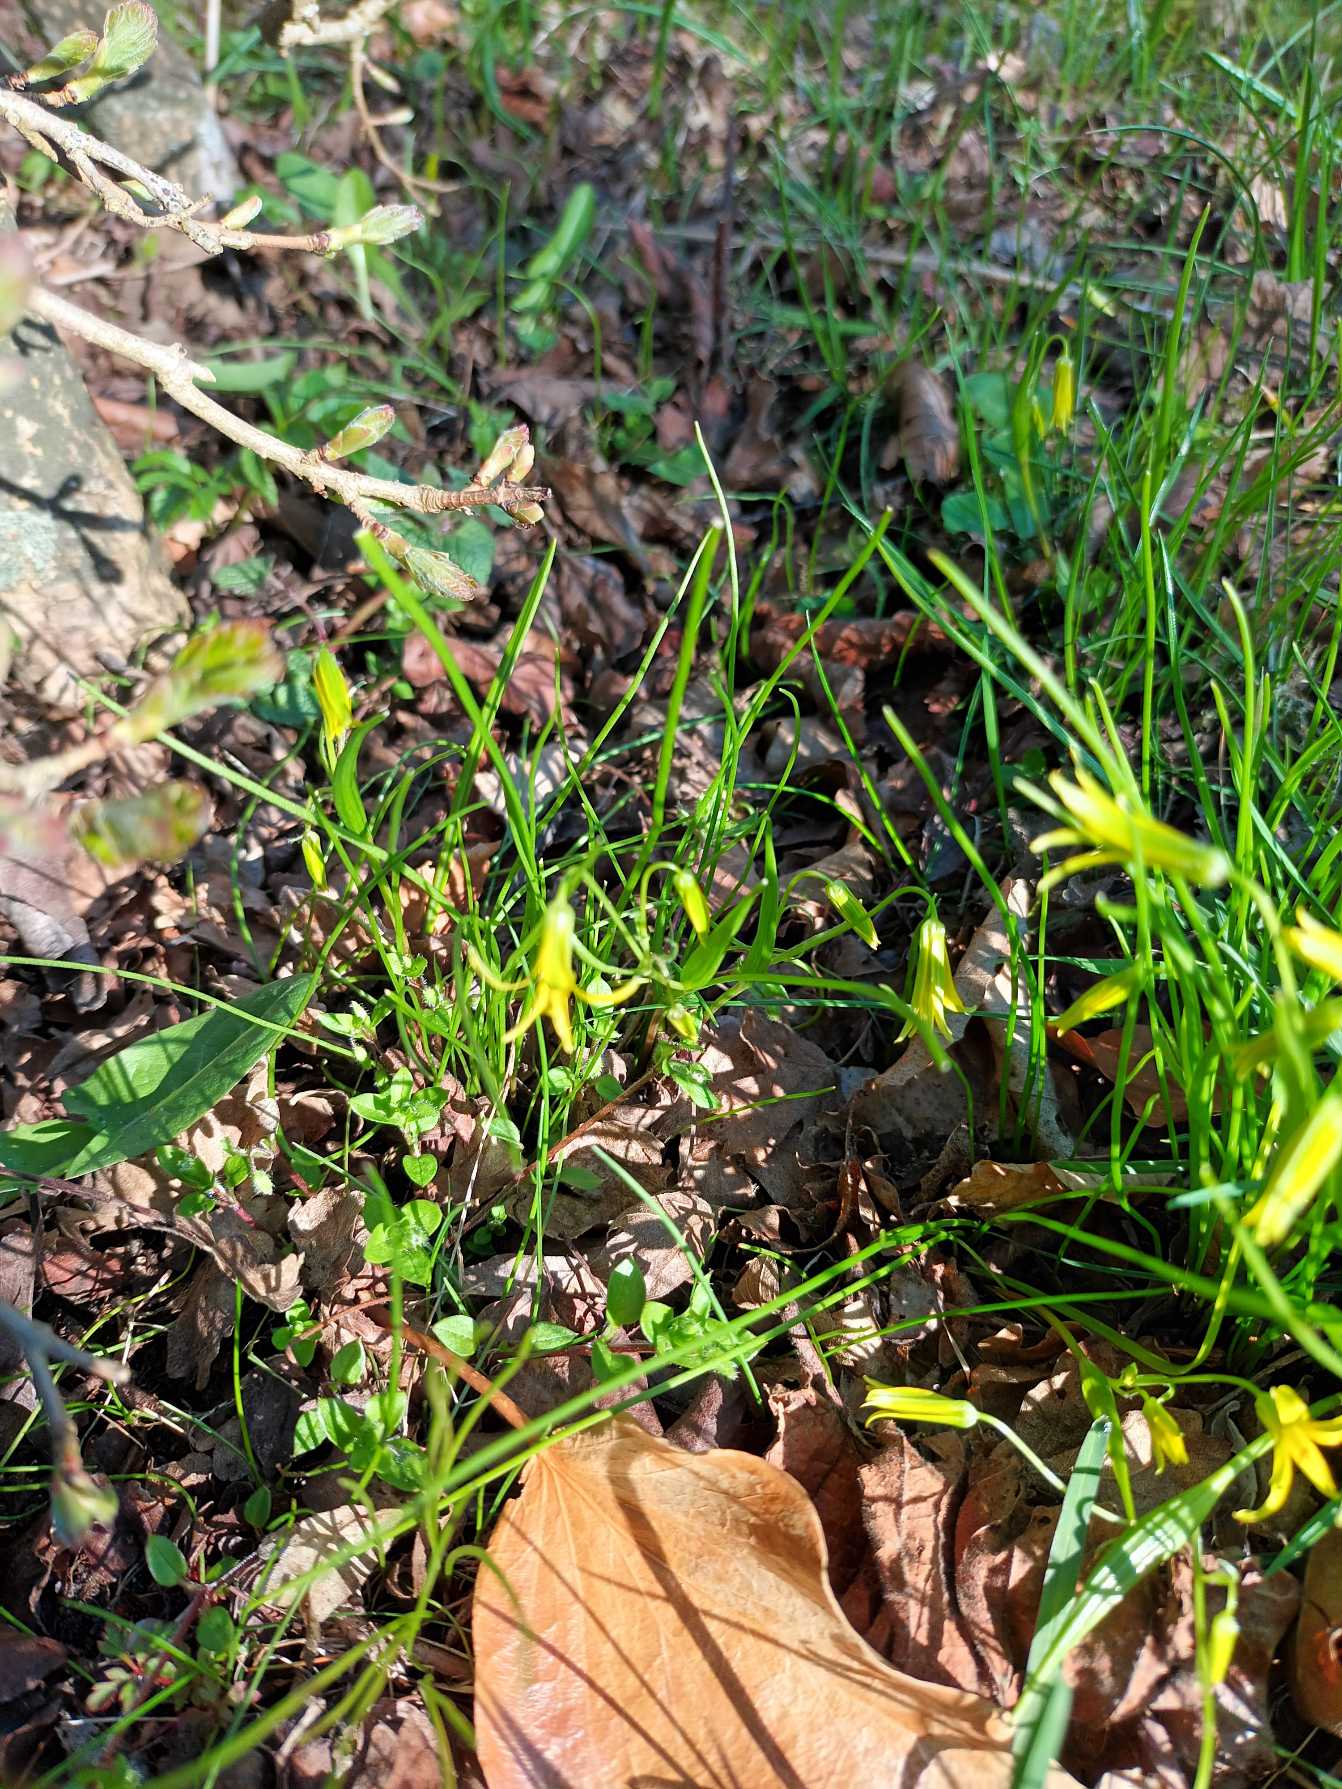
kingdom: Plantae
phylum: Tracheophyta
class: Liliopsida
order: Liliales
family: Liliaceae
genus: Gagea
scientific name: Gagea minima
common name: Liden guldstjerne
